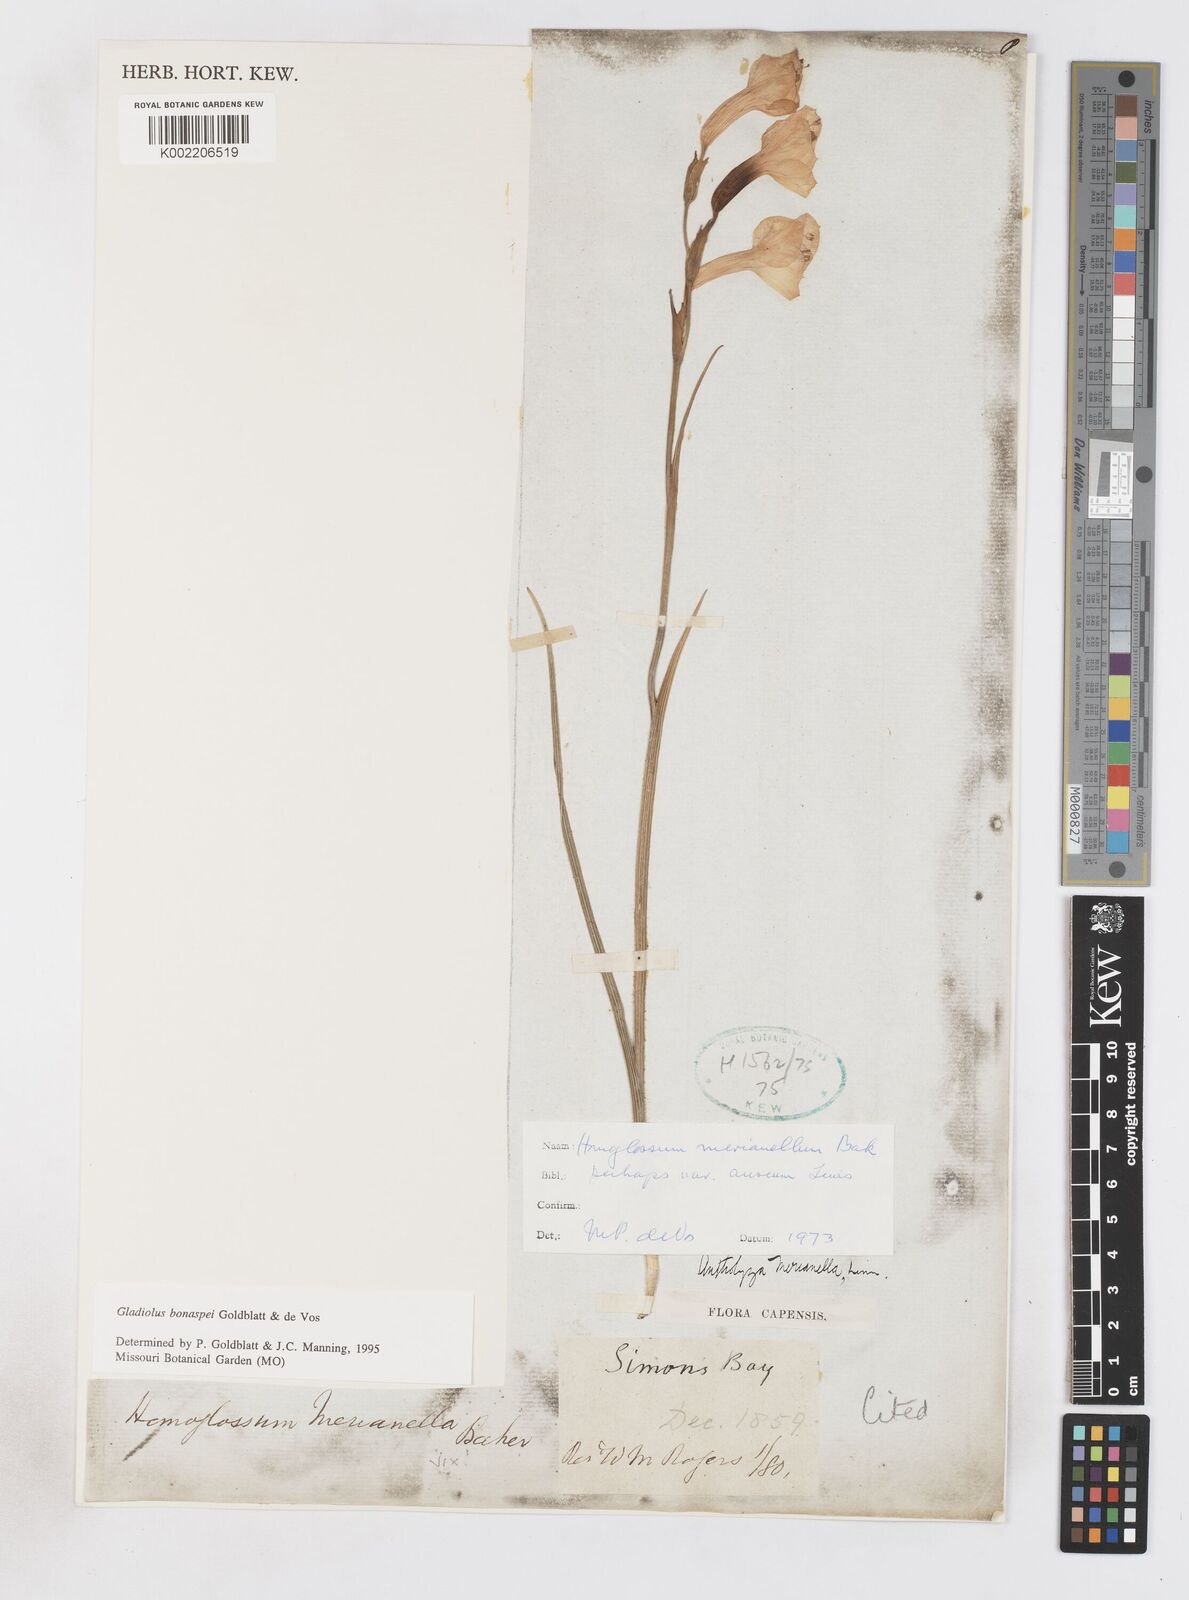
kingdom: Plantae
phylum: Tracheophyta
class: Liliopsida
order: Asparagales
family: Iridaceae
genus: Gladiolus
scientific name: Gladiolus merianellus
